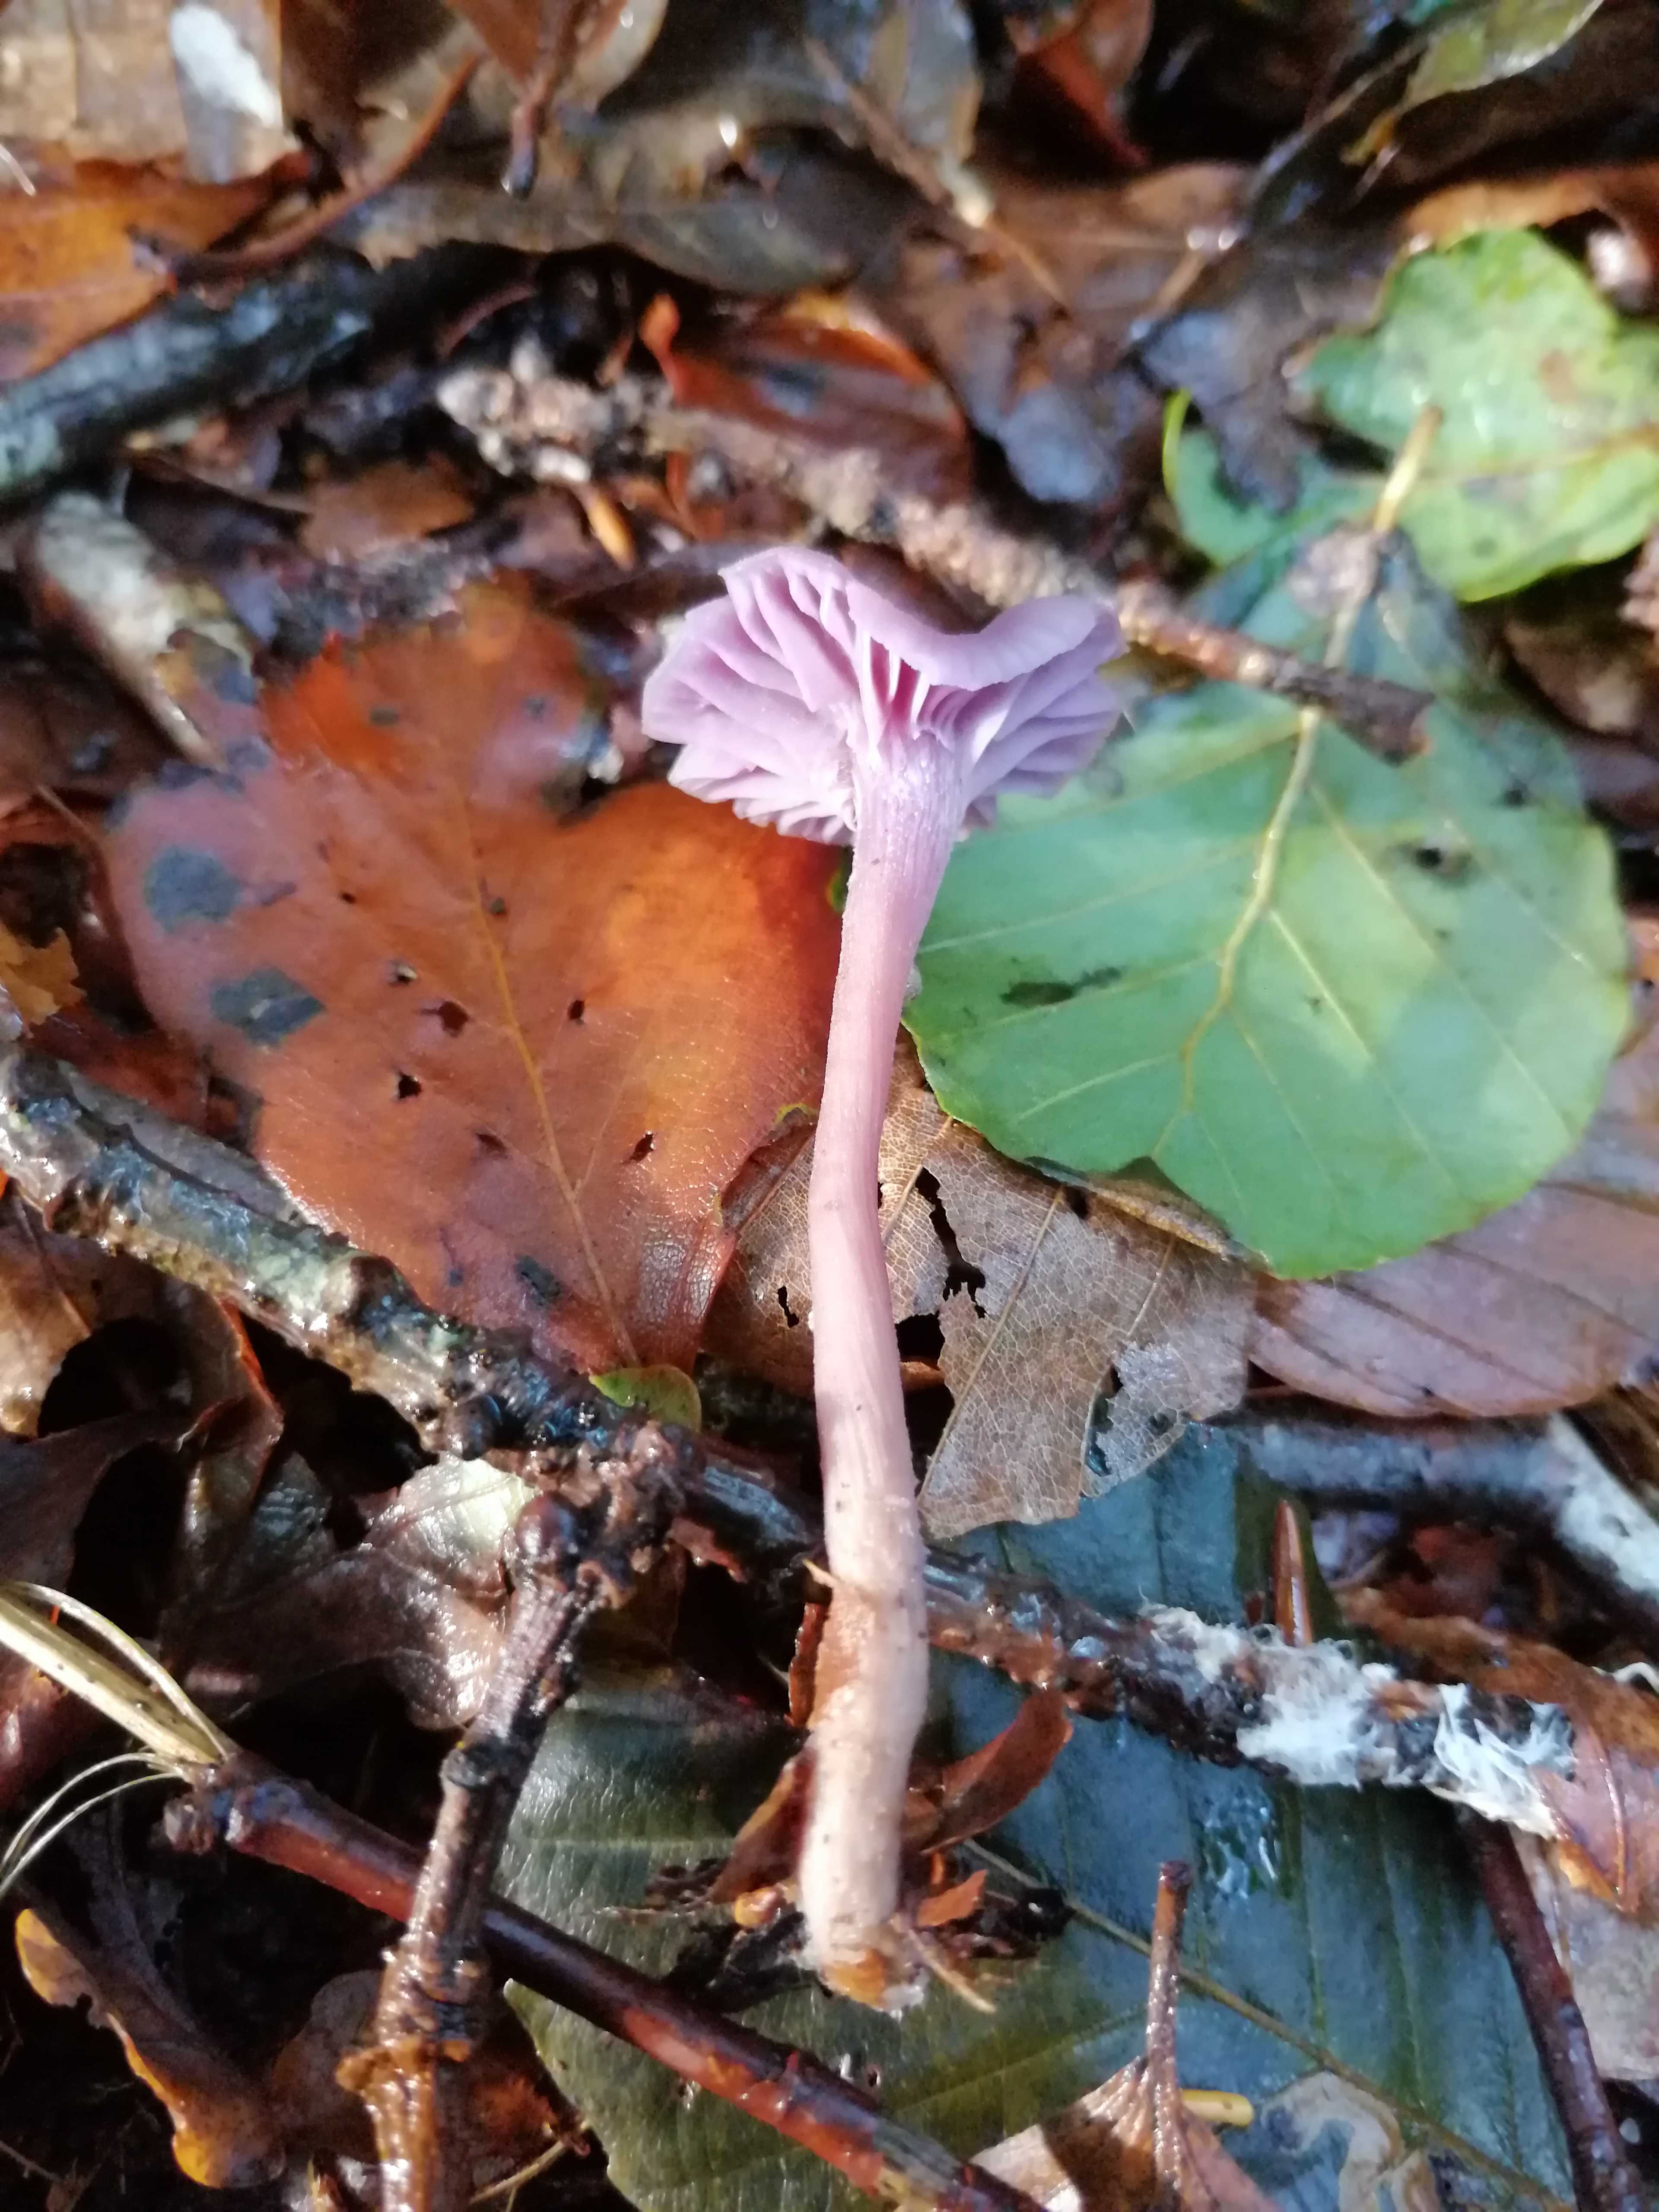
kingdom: Fungi
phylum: Basidiomycota
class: Agaricomycetes
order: Agaricales
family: Hydnangiaceae
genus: Laccaria
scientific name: Laccaria amethystina
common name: violet ametysthat
